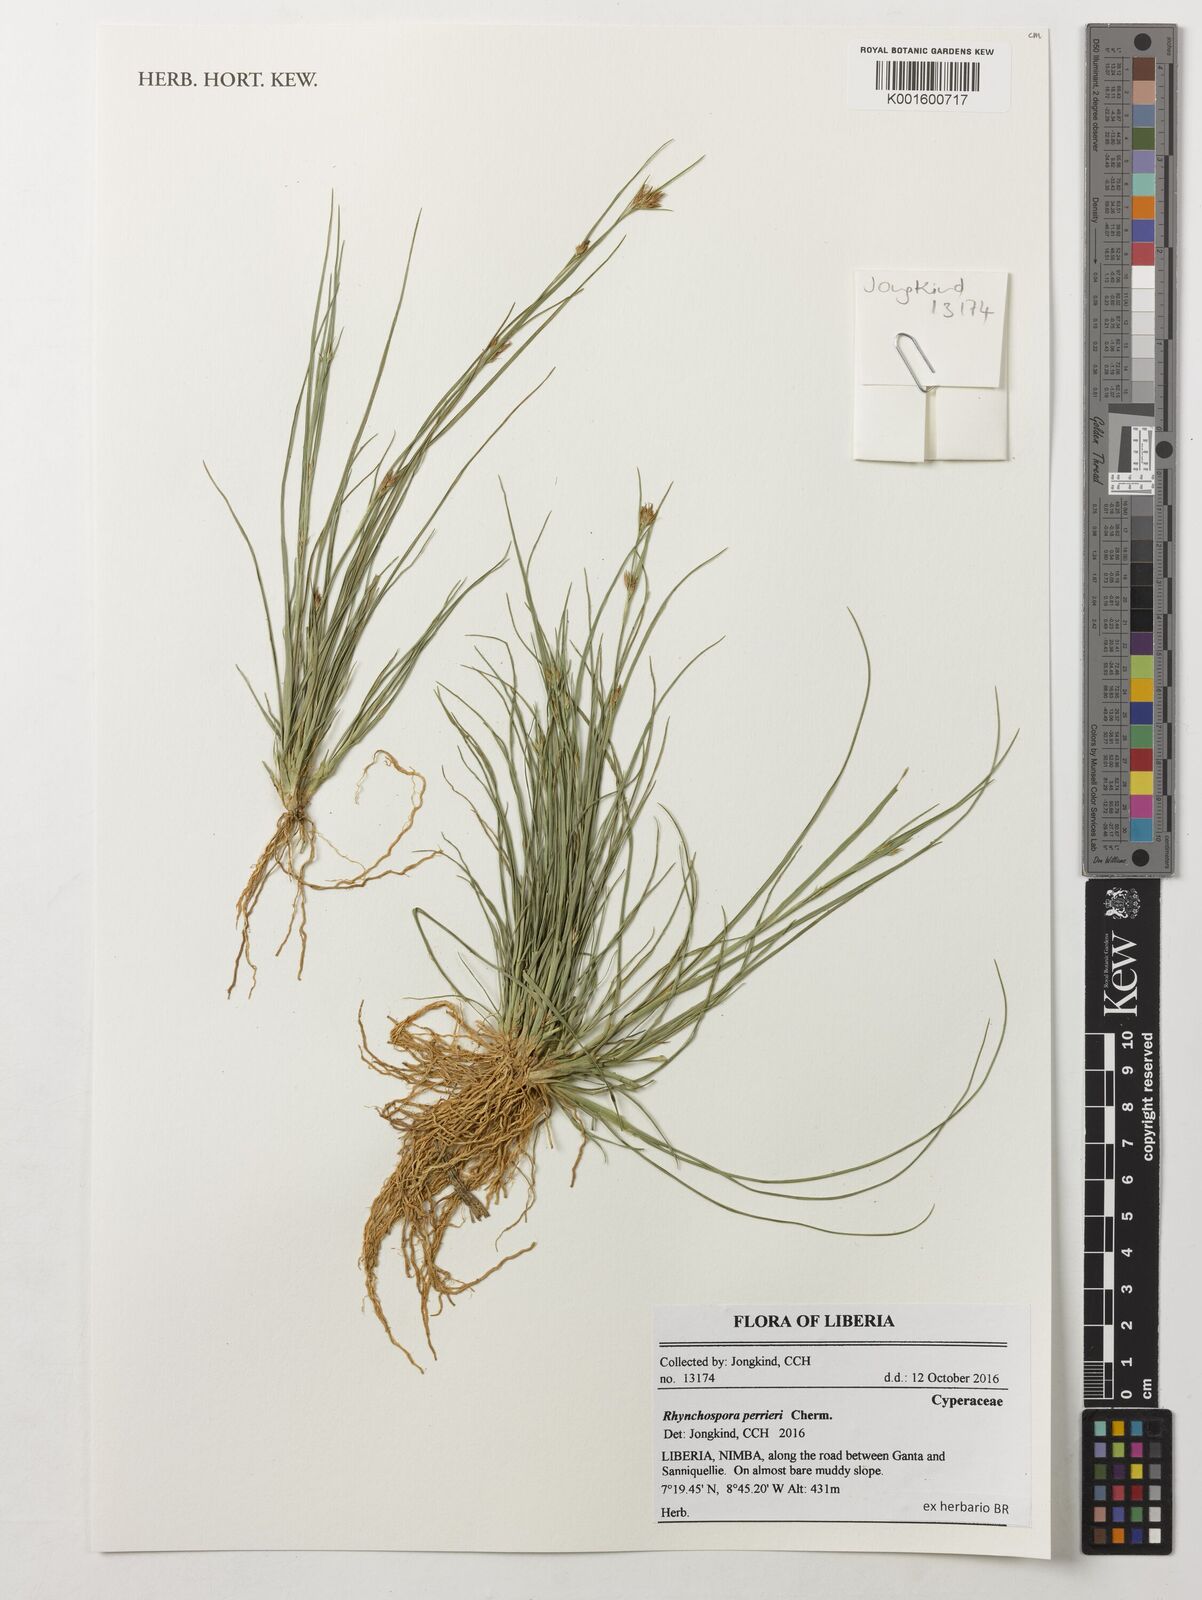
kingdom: Plantae
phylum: Tracheophyta
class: Liliopsida
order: Poales
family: Cyperaceae
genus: Rhynchospora
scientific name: Rhynchospora perrieri
